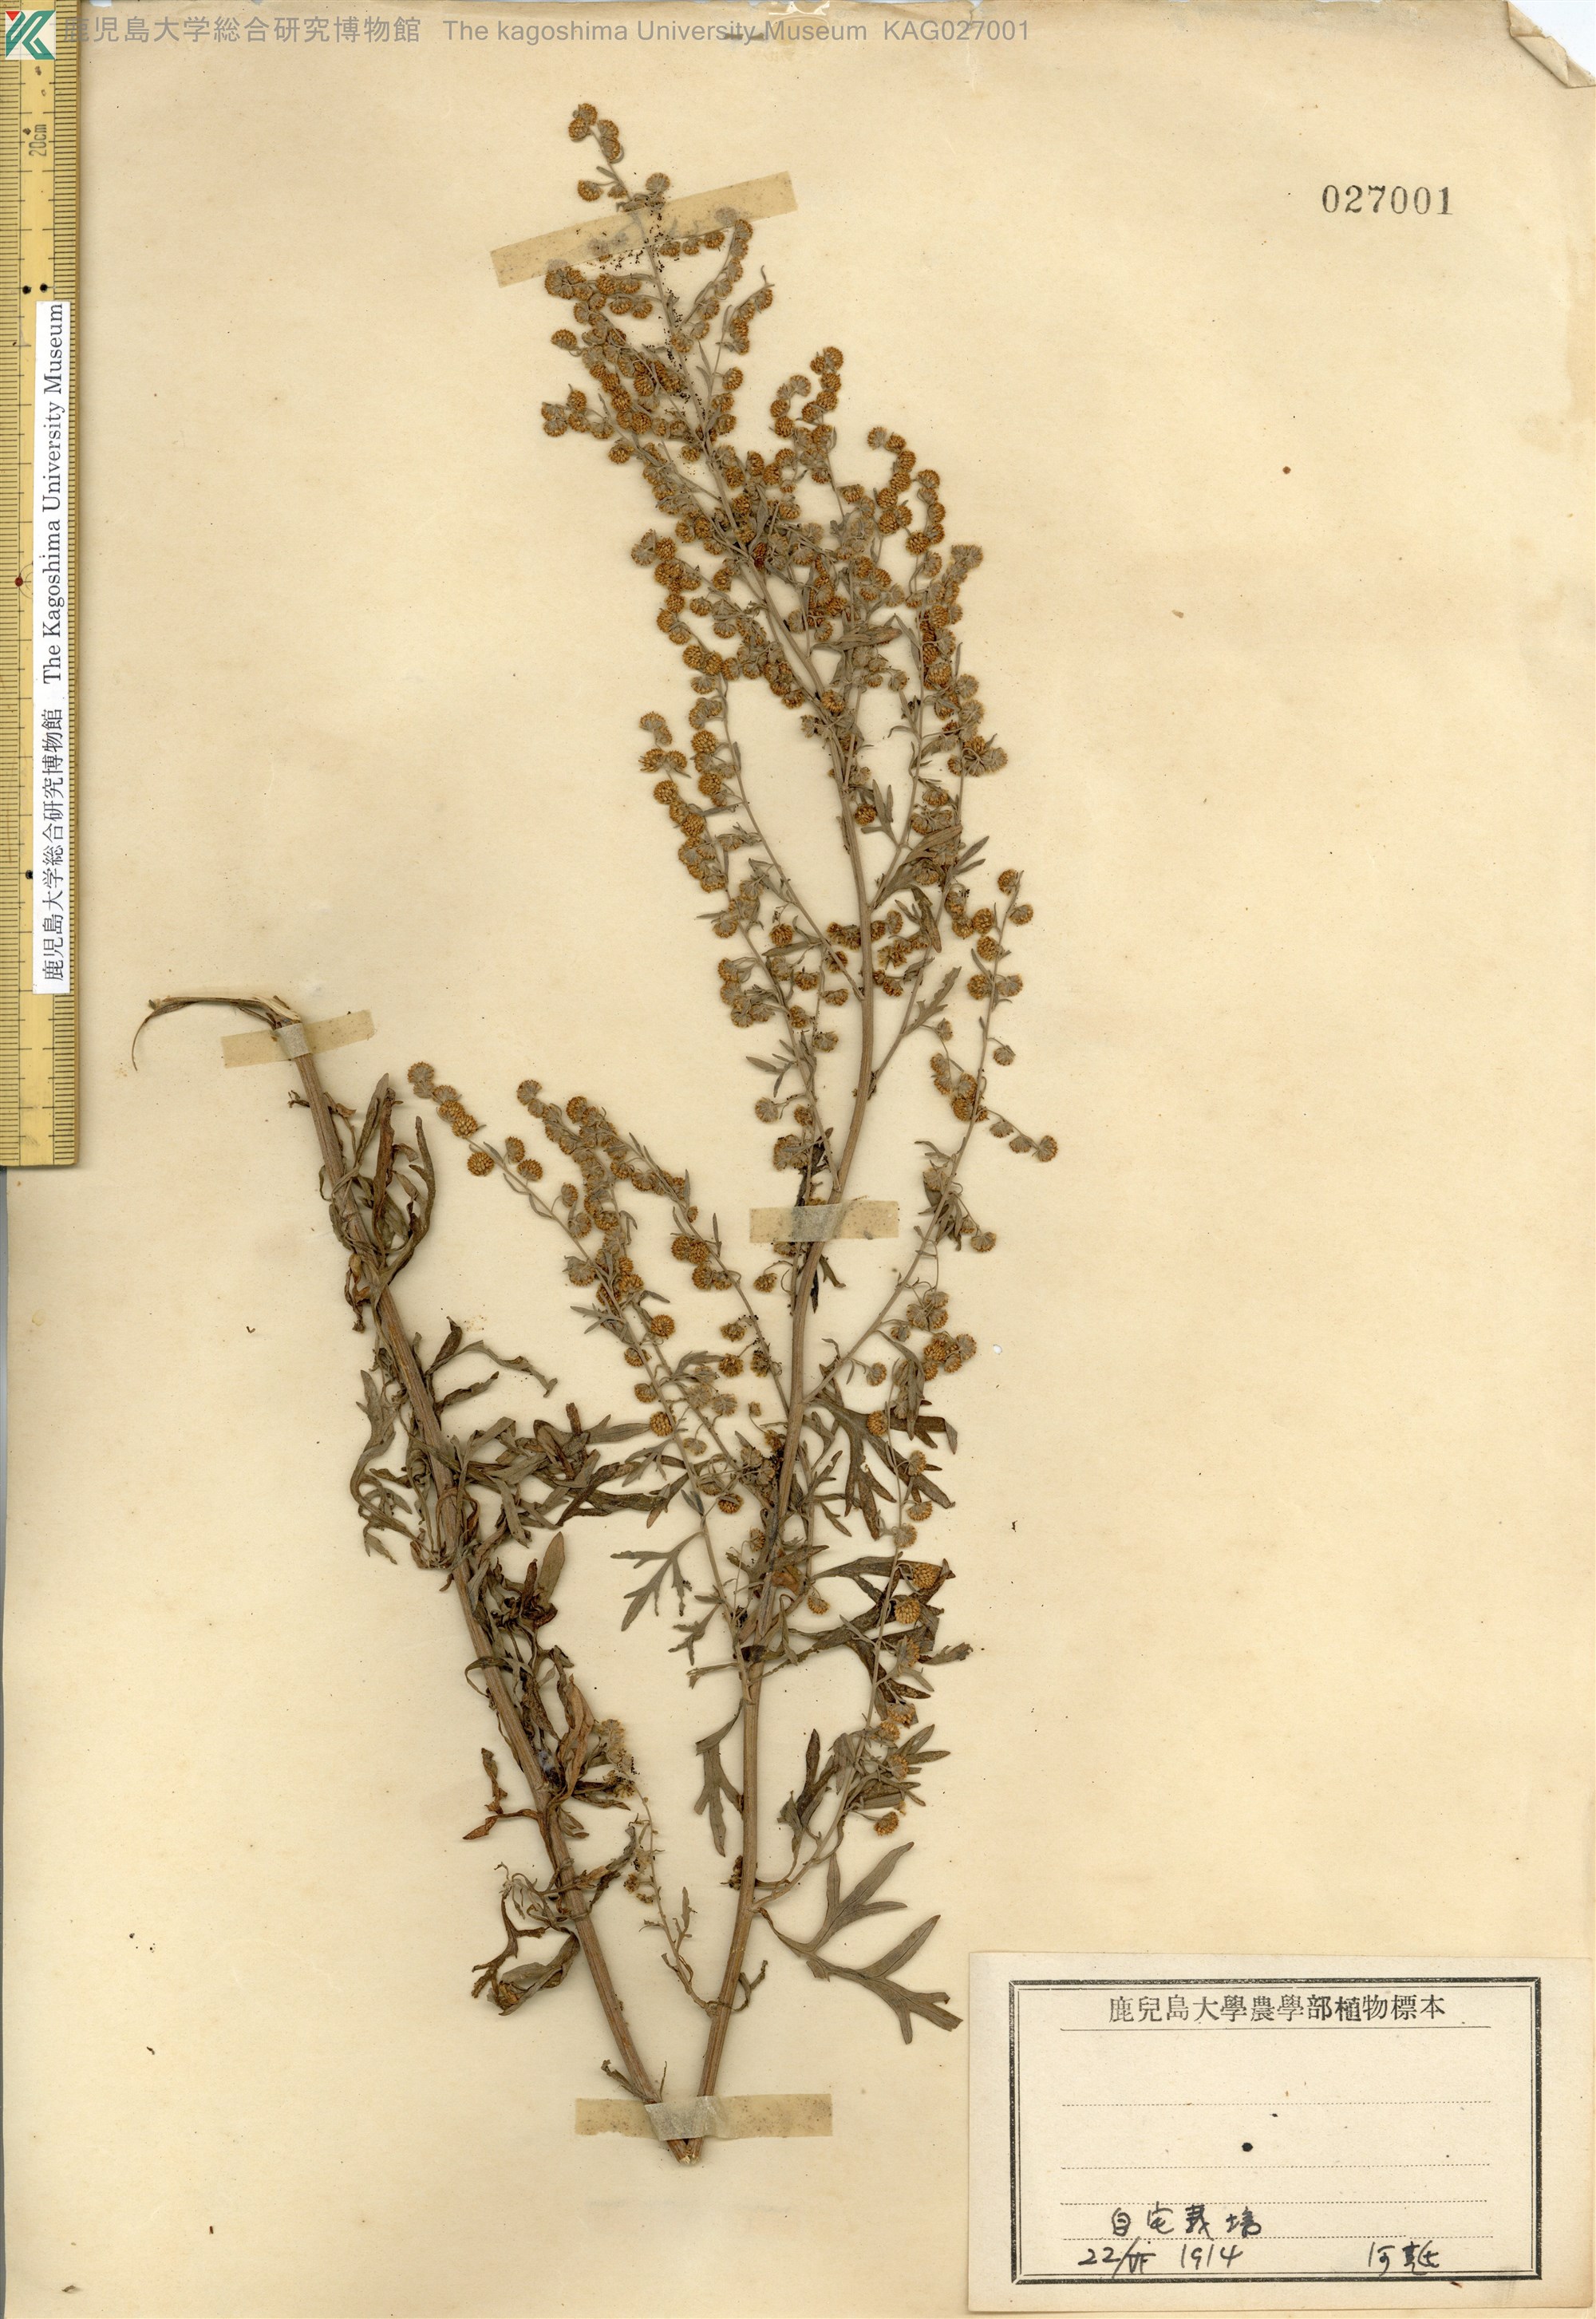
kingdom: Plantae
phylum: Tracheophyta
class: Magnoliopsida
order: Asterales
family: Asteraceae
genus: Artemisia
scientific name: Artemisia absinthium
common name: Wormwood
